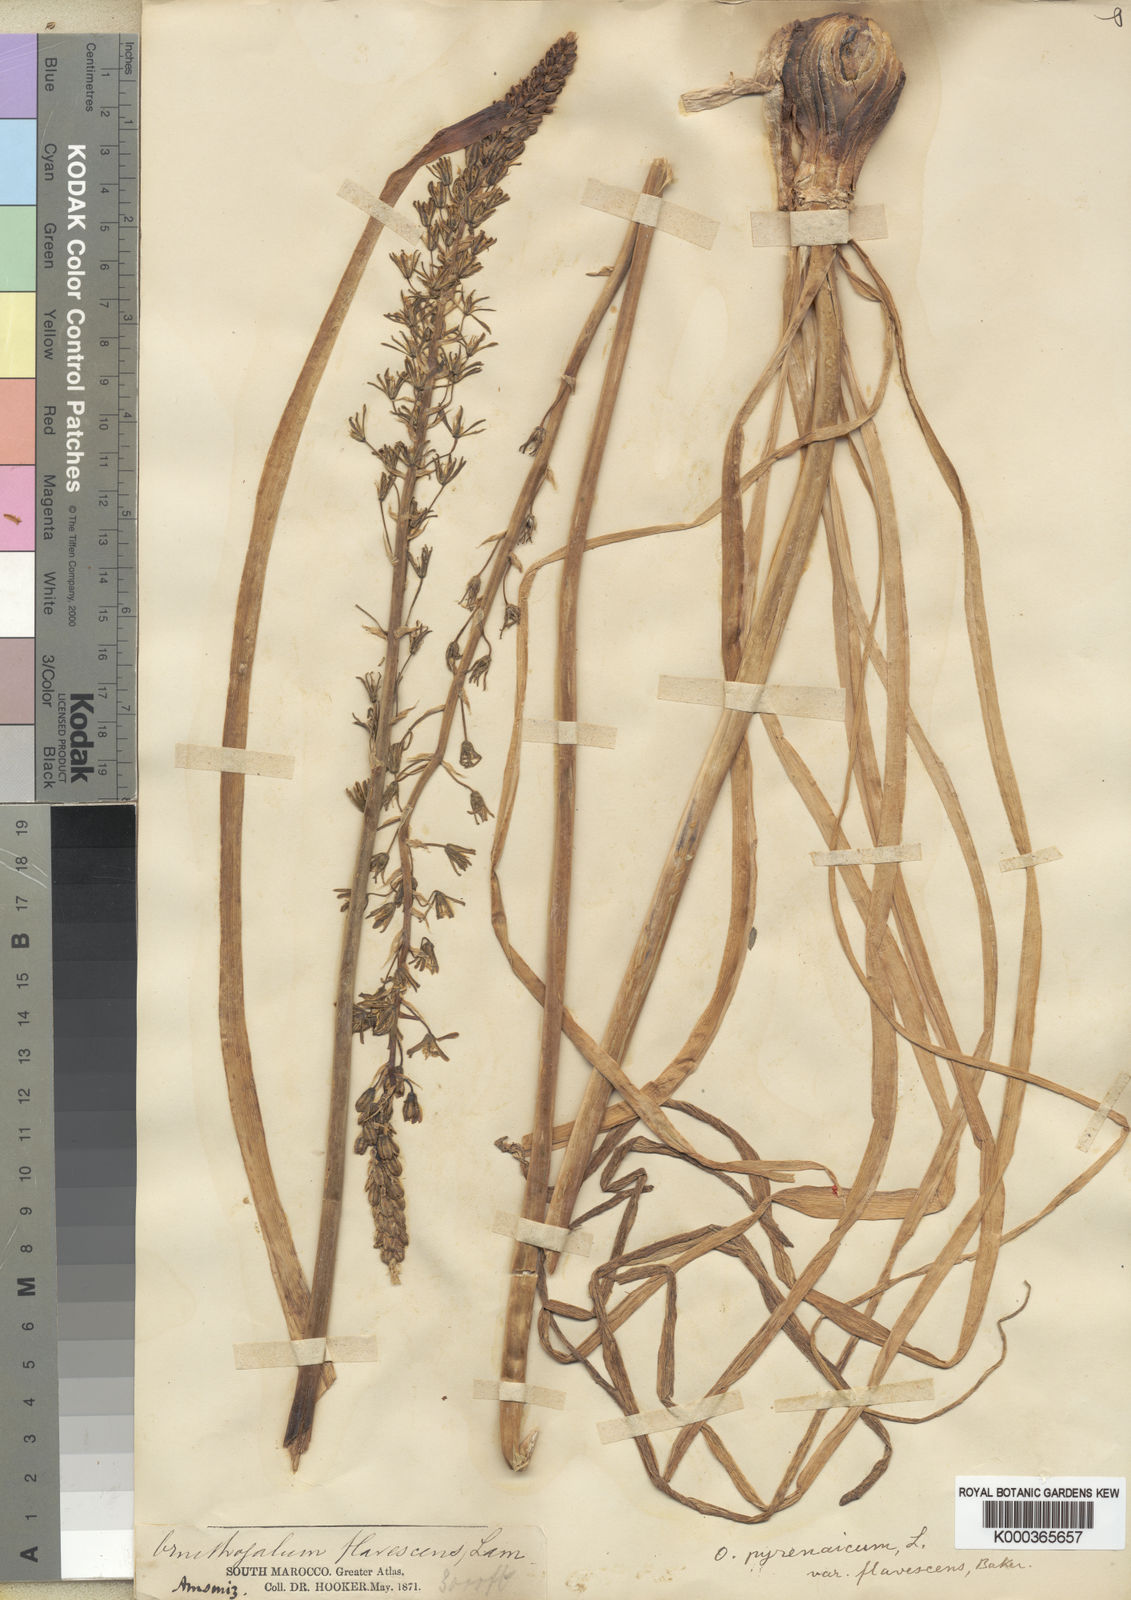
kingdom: Plantae
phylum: Tracheophyta
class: Liliopsida
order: Asparagales
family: Asparagaceae
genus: Ornithogalum
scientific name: Ornithogalum pyrenaicum
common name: Spiked star-of-bethlehem
